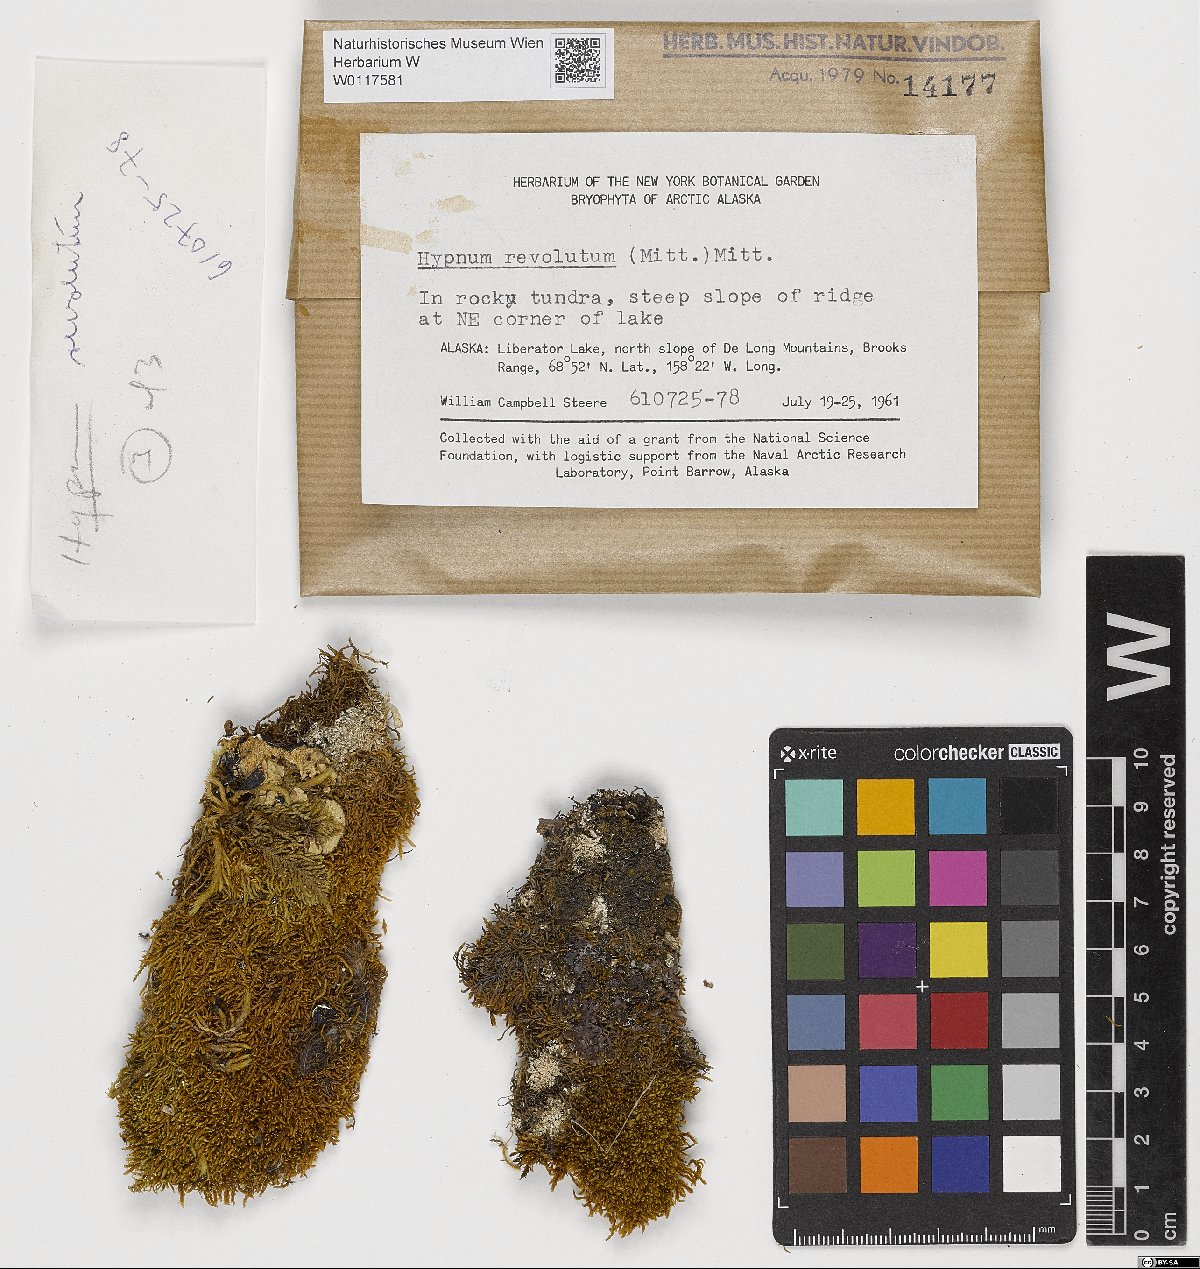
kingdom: Plantae
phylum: Bryophyta
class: Bryopsida
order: Hypnales
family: Pylaisiaceae
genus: Roaldia
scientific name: Roaldia revoluta
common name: Revolute plait-moss
